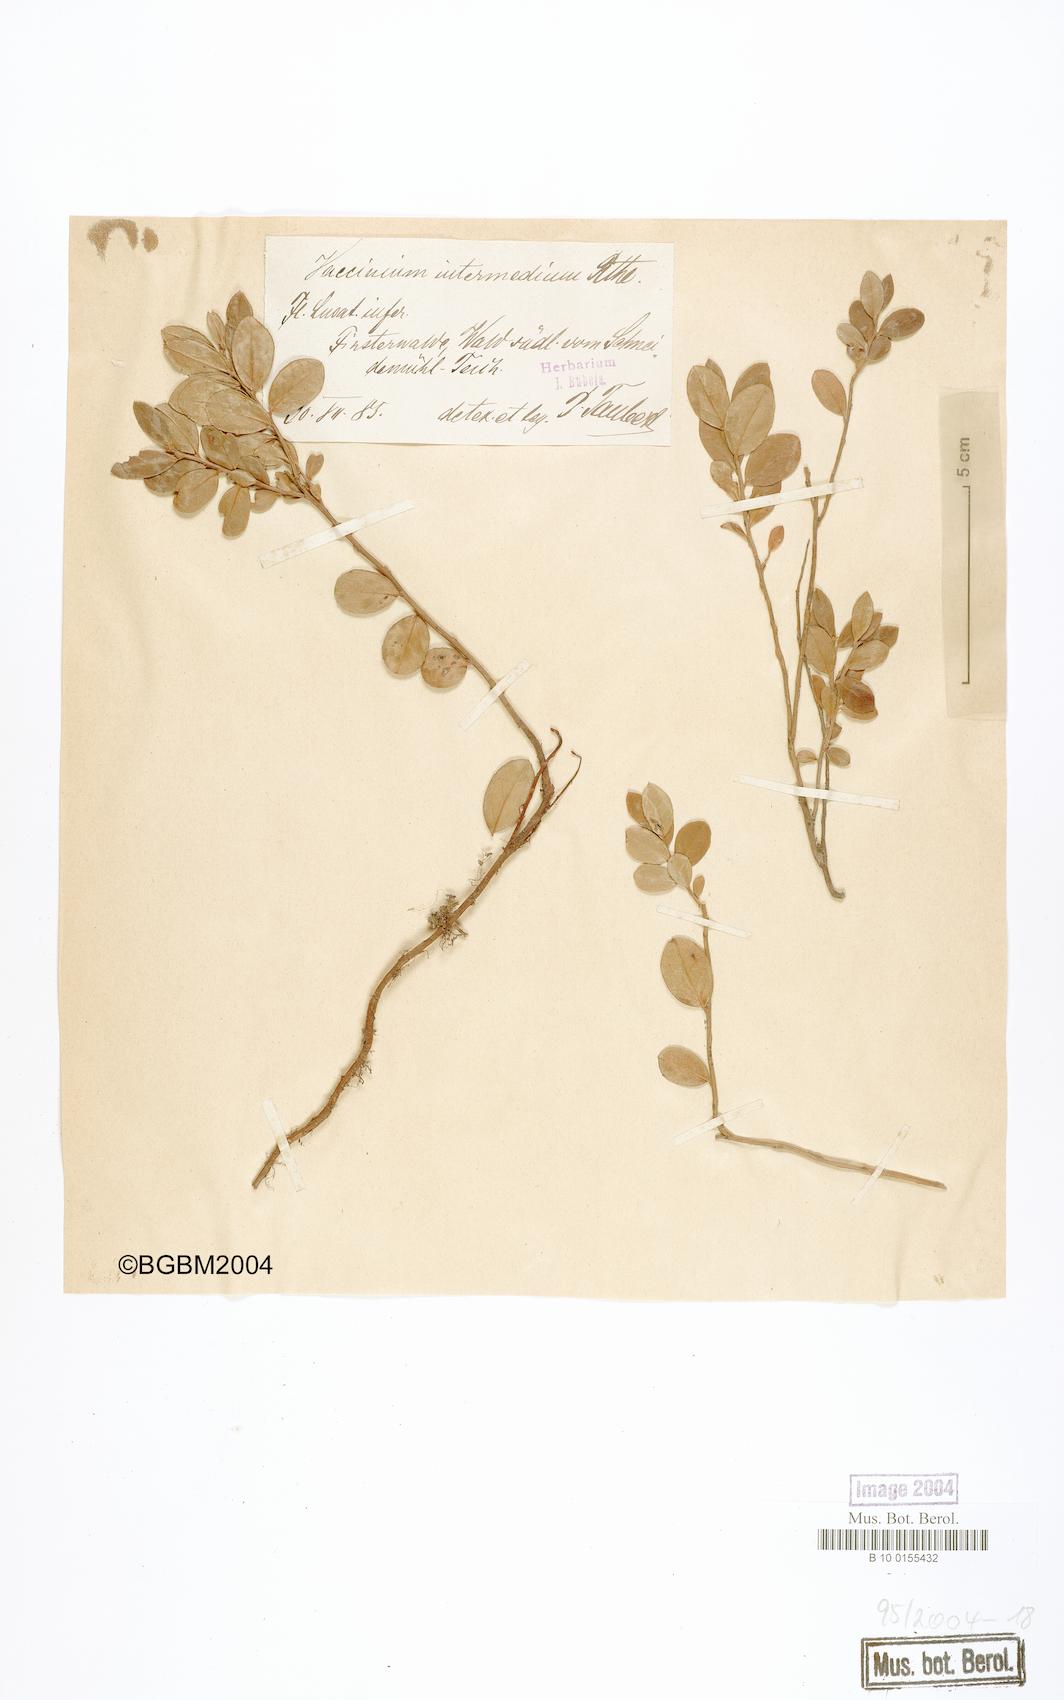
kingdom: Plantae
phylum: Tracheophyta
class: Magnoliopsida
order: Ericales
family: Ericaceae
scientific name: Ericaceae
